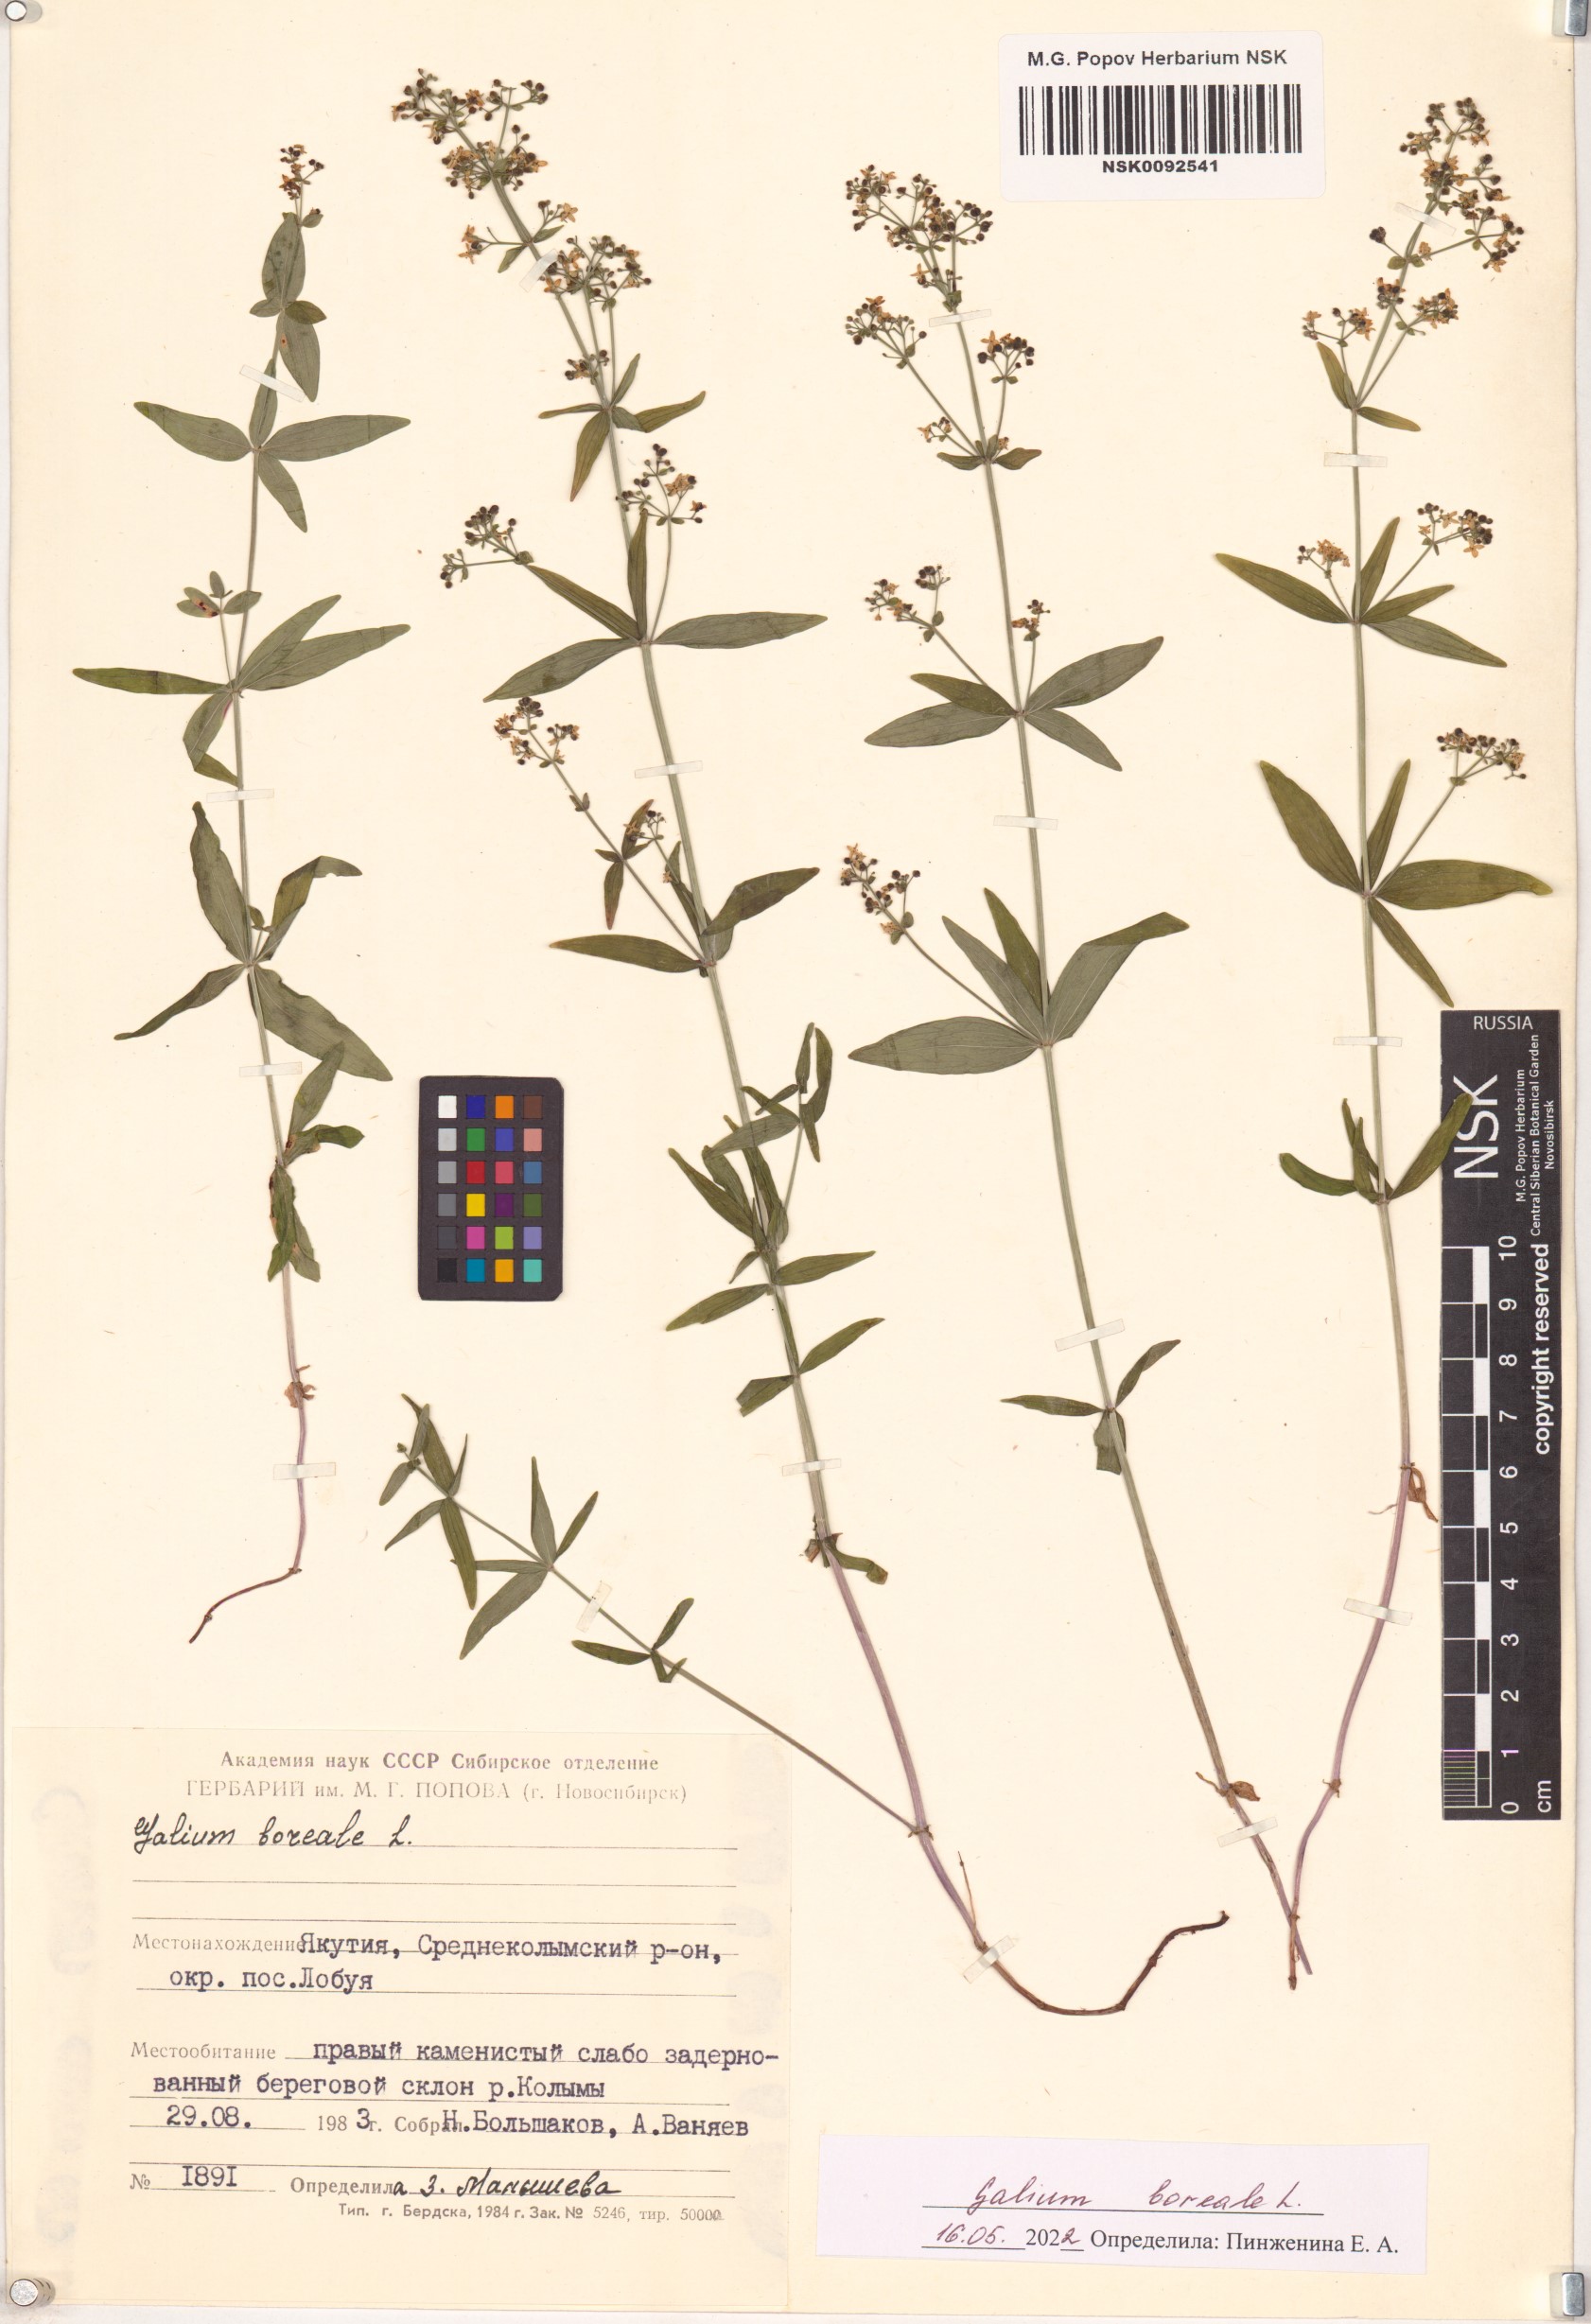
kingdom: Plantae
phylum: Tracheophyta
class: Magnoliopsida
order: Gentianales
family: Rubiaceae
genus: Galium
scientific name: Galium boreale
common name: Northern bedstraw
